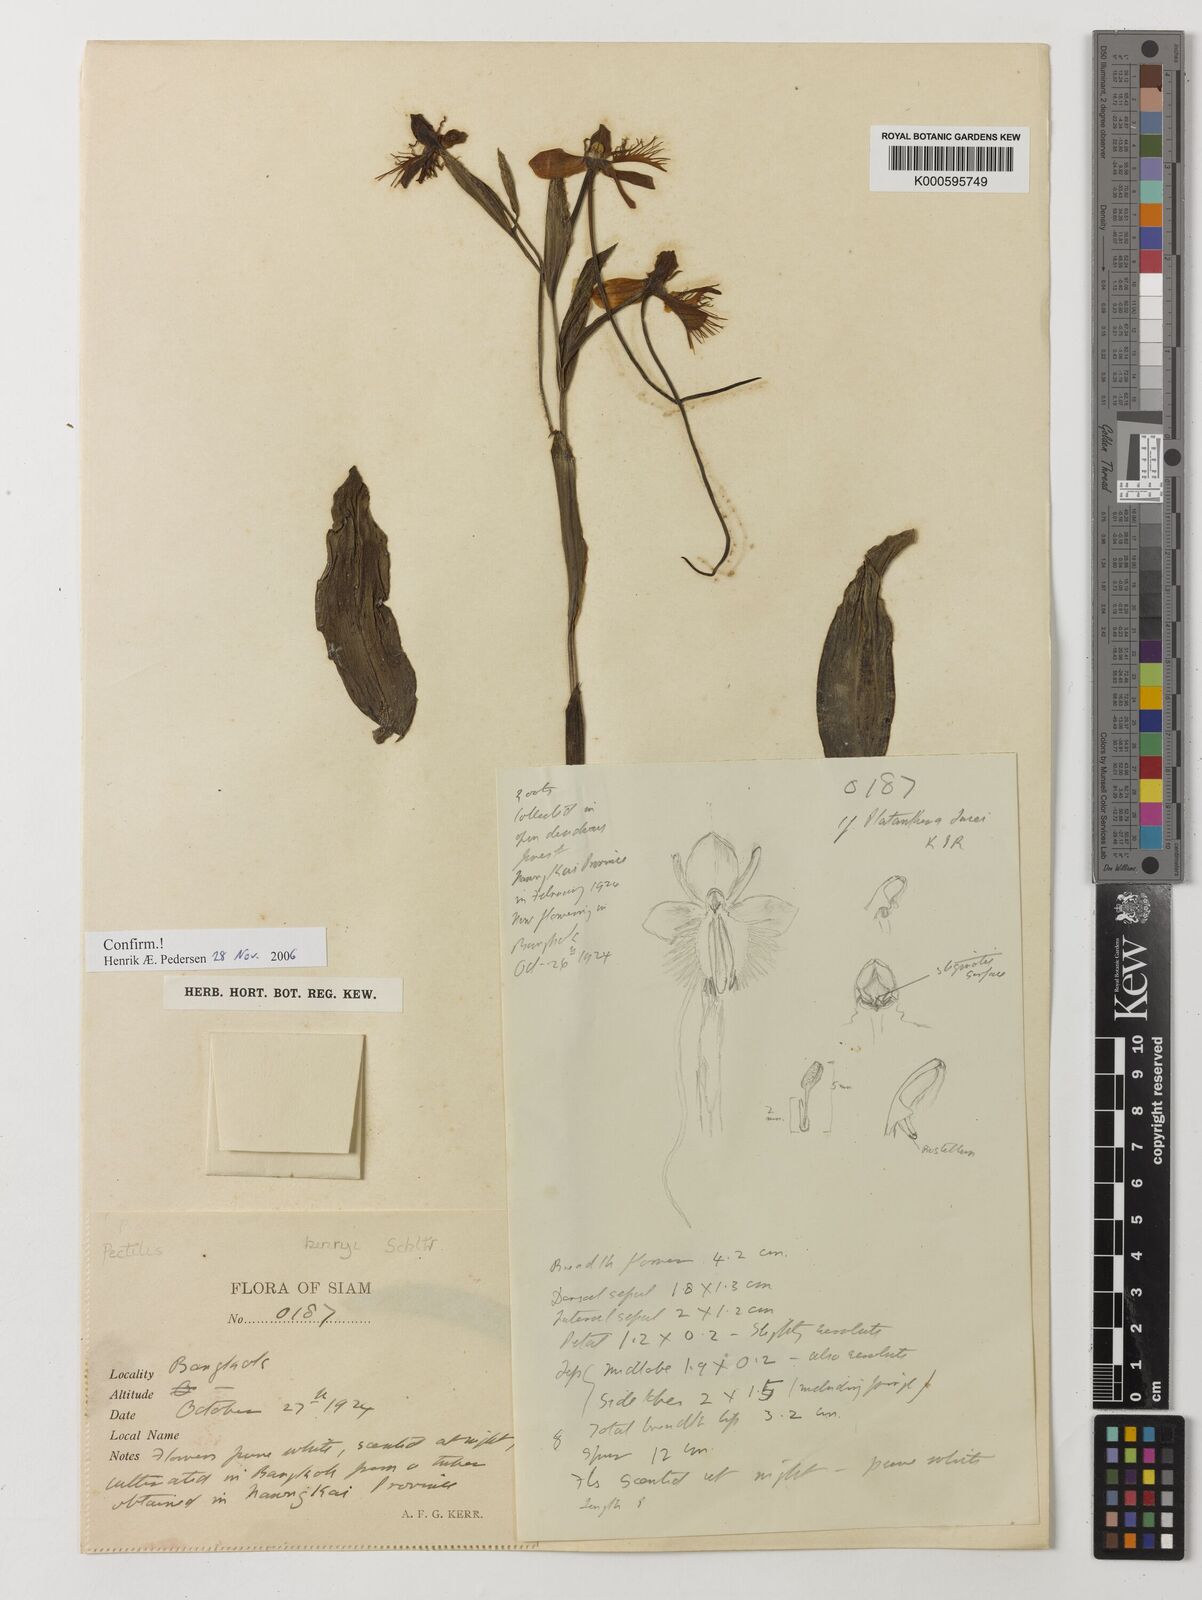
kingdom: Plantae
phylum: Tracheophyta
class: Liliopsida
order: Asparagales
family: Orchidaceae
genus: Pecteilis
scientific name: Pecteilis henryi
